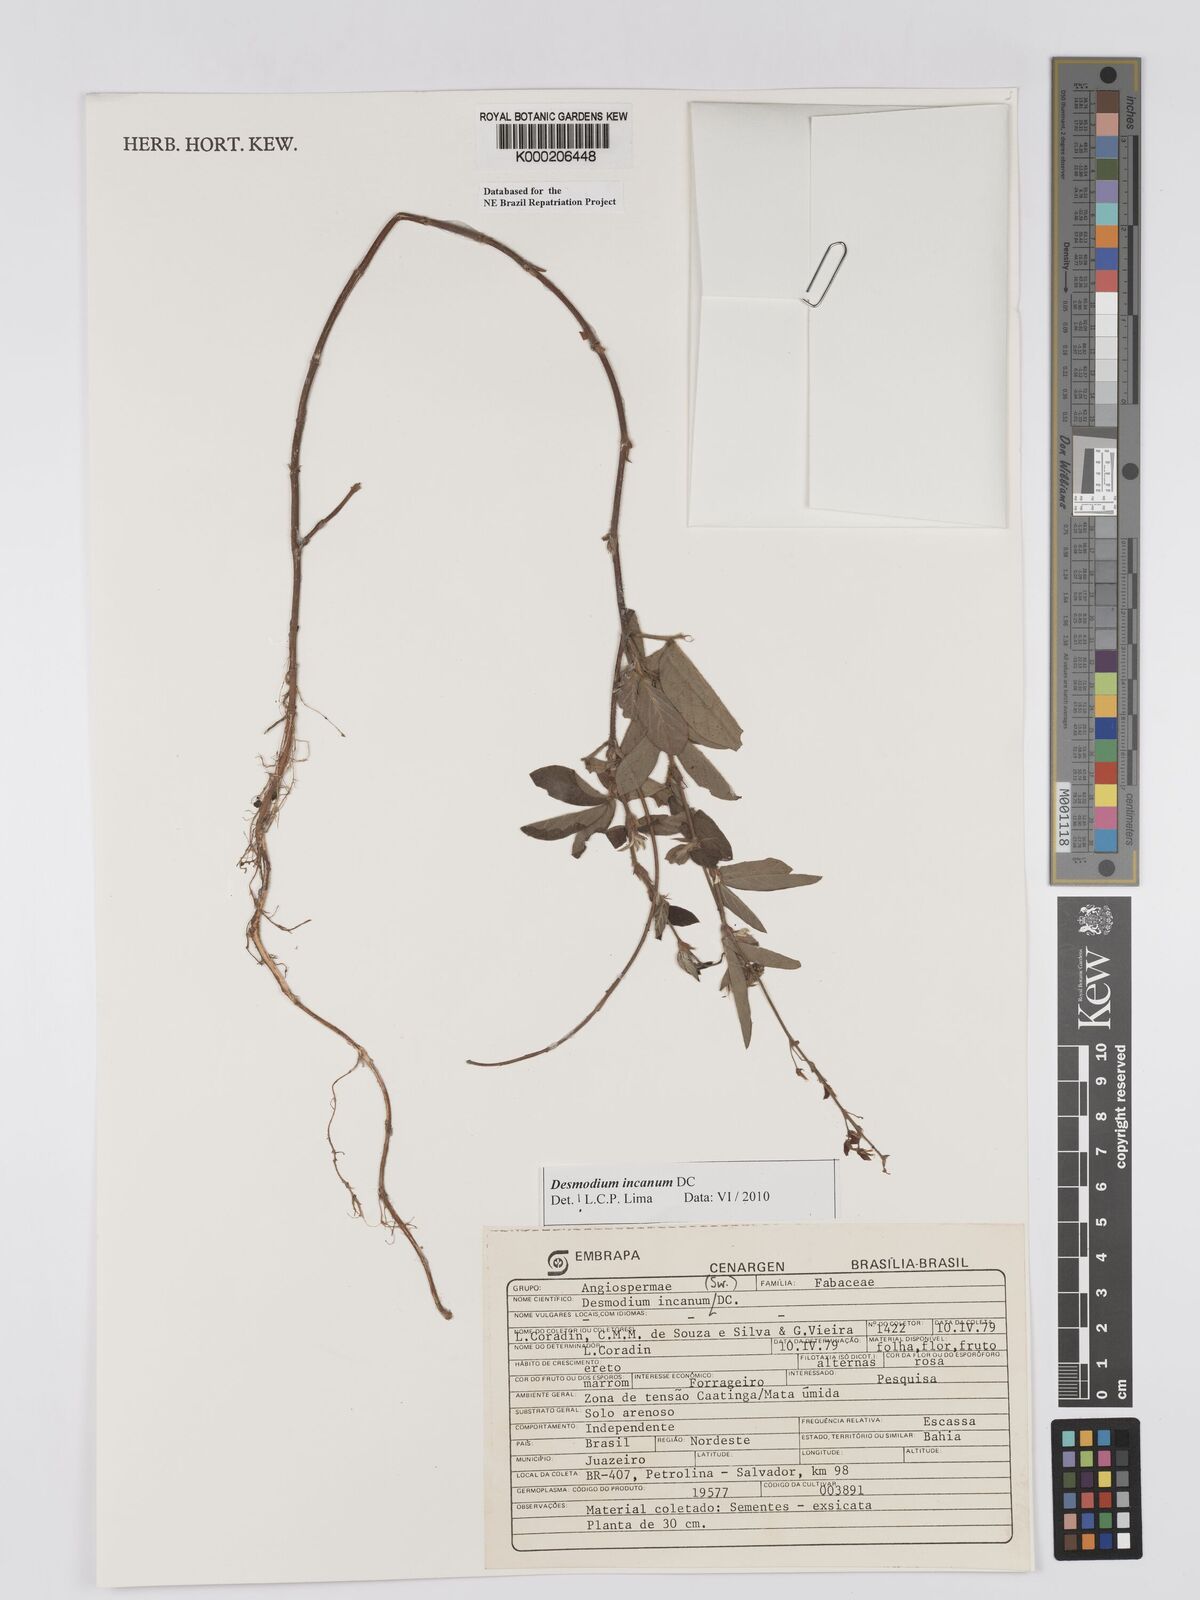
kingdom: Plantae
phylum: Tracheophyta
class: Magnoliopsida
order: Fabales
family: Fabaceae
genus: Desmodium
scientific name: Desmodium incanum
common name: Tickclover
